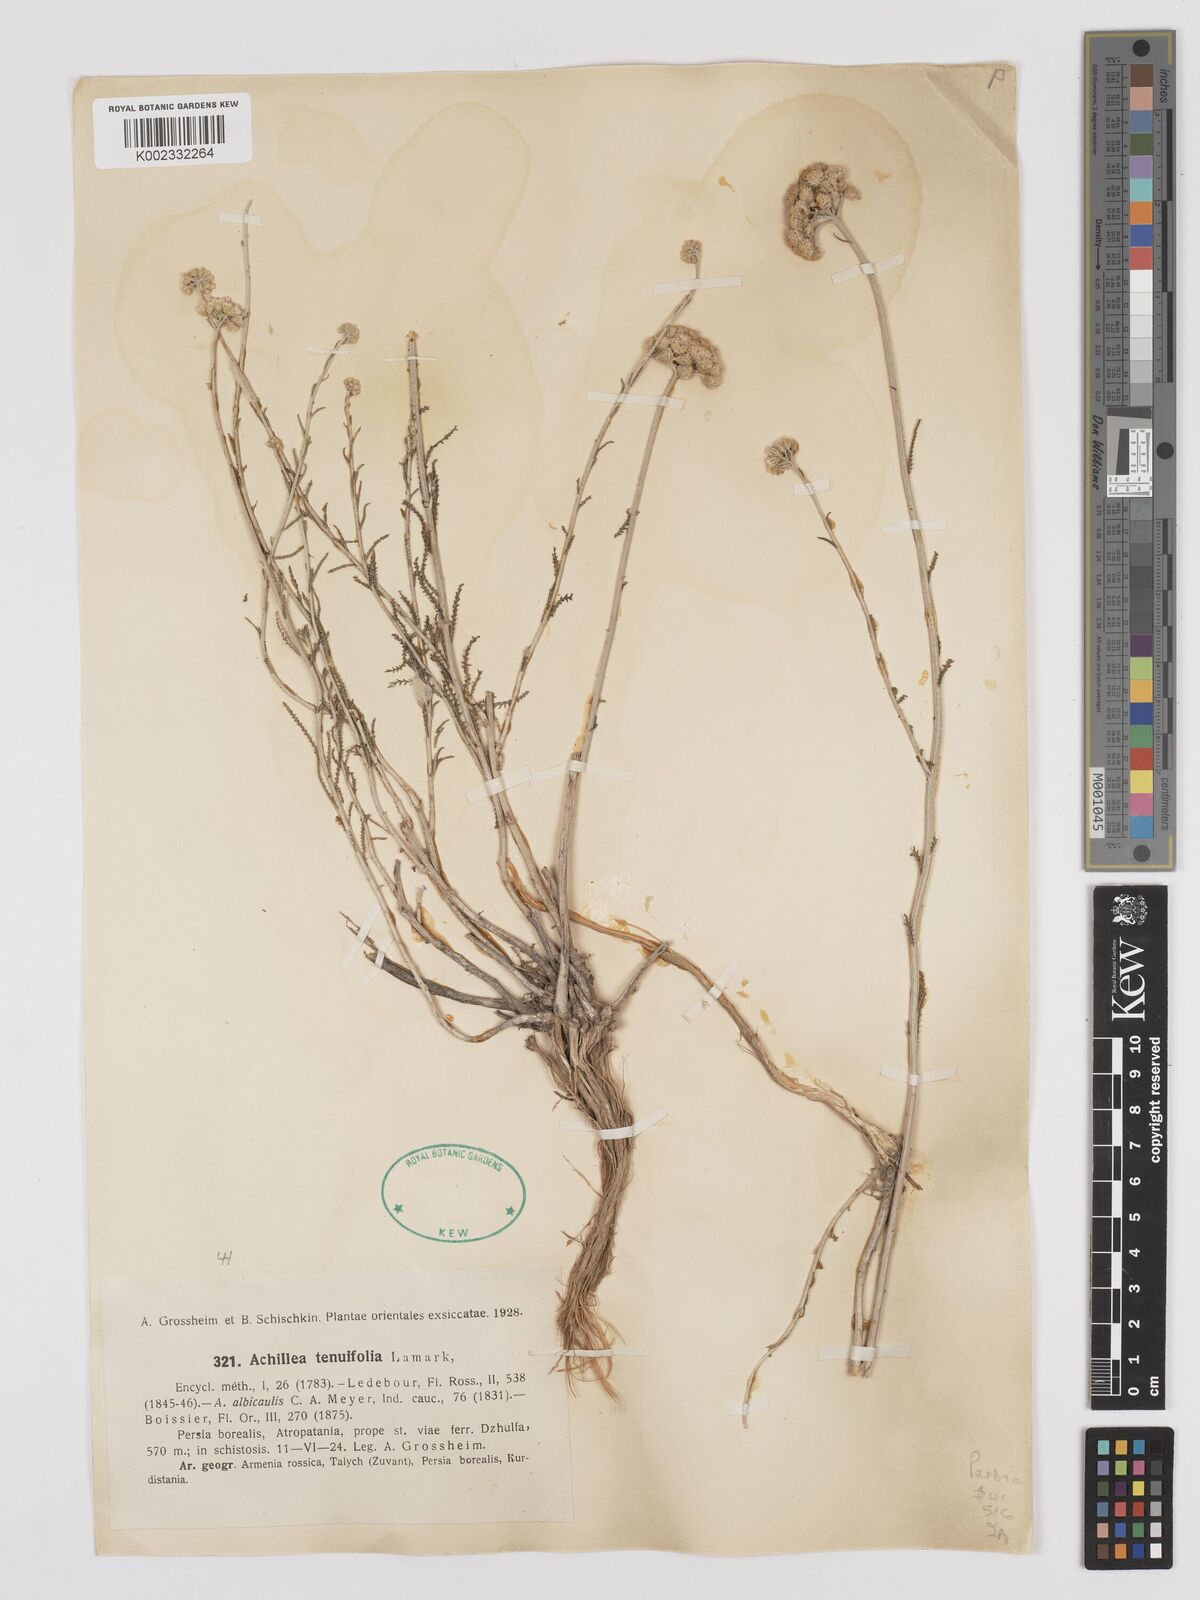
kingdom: Plantae
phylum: Tracheophyta
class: Magnoliopsida
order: Asterales
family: Asteraceae
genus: Achillea
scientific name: Achillea tenuifolia
